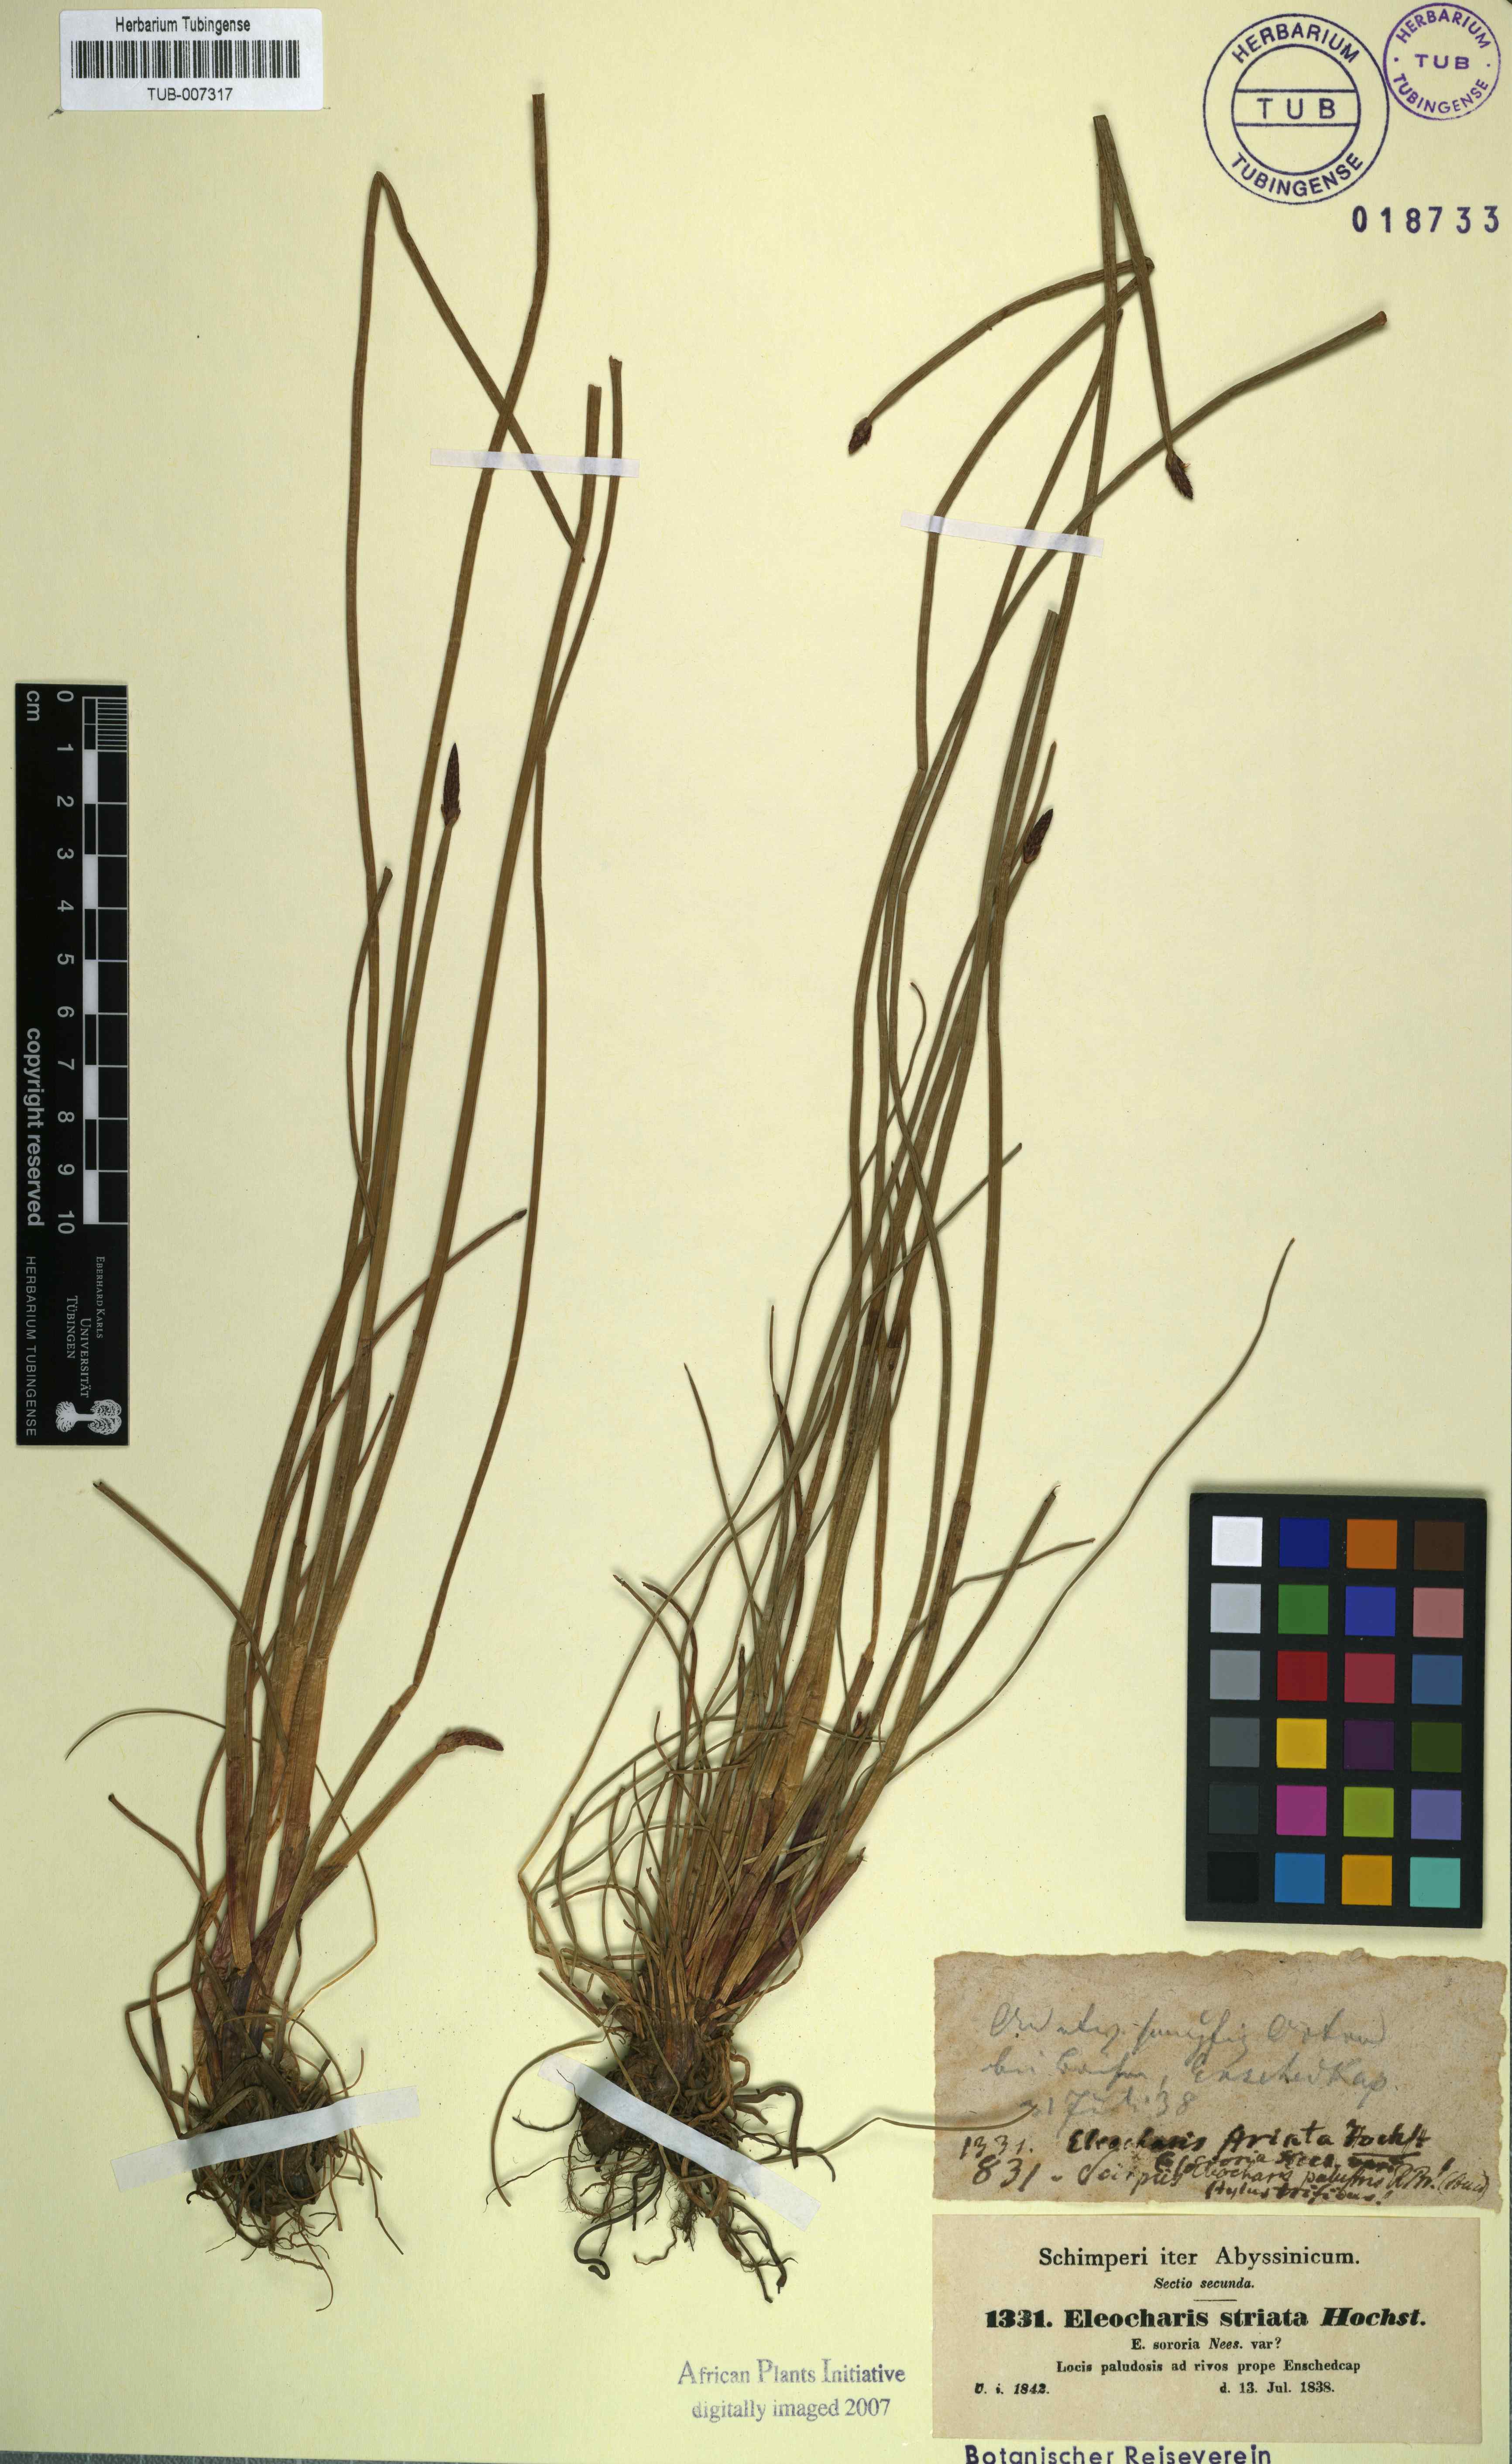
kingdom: Plantae
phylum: Tracheophyta
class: Liliopsida
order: Poales
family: Cyperaceae
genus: Eleocharis
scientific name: Eleocharis limosa
